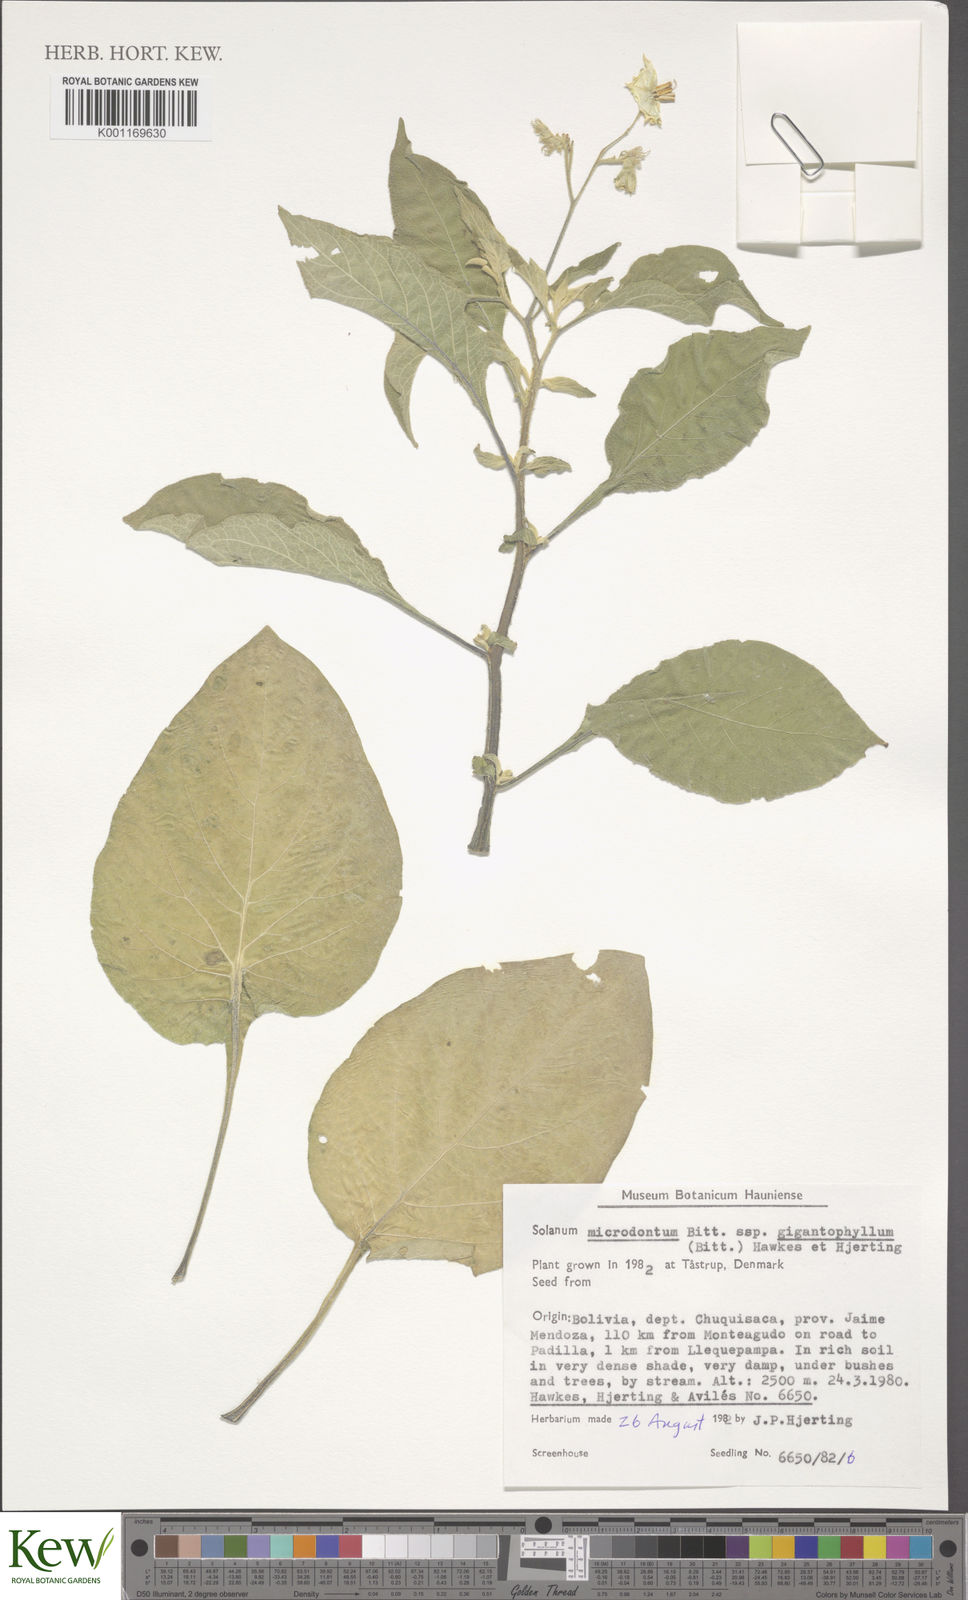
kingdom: Plantae
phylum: Tracheophyta
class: Magnoliopsida
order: Solanales
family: Solanaceae
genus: Solanum
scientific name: Solanum microdontum
